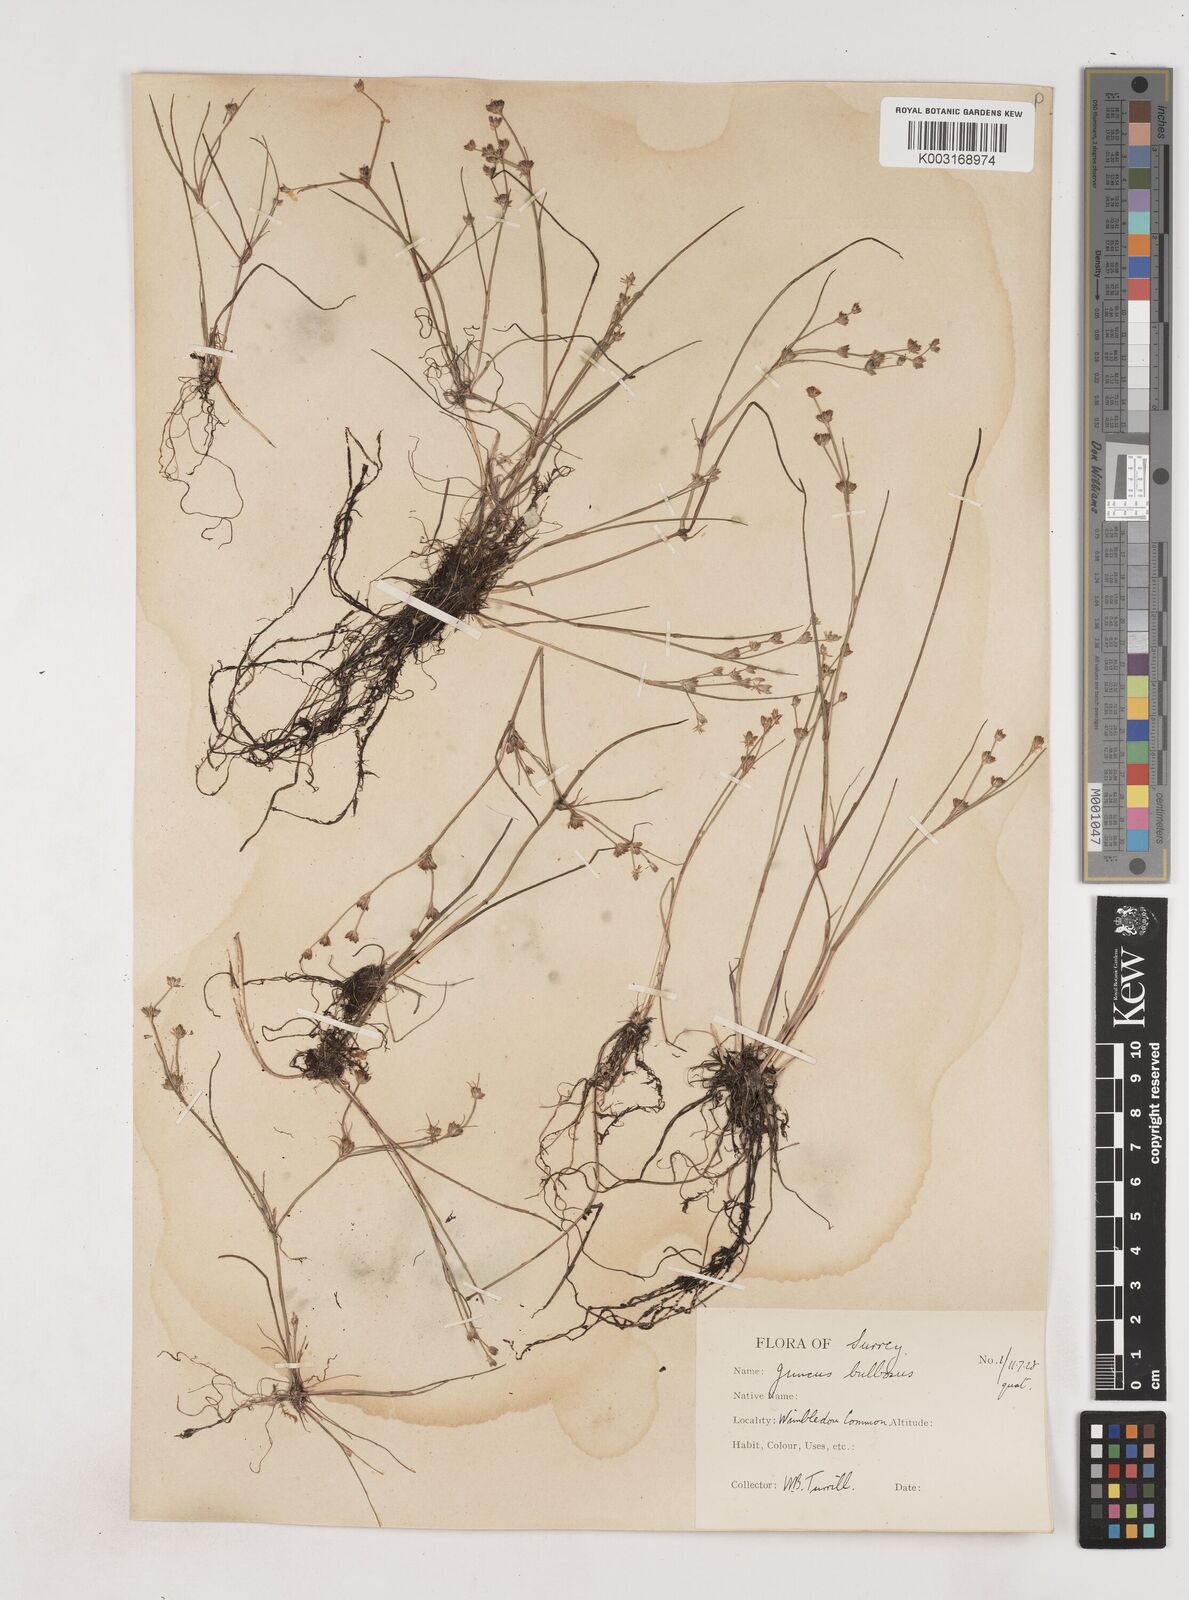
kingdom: Plantae
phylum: Tracheophyta
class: Liliopsida
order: Poales
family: Juncaceae
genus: Juncus
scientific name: Juncus bulbosus
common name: Bulbous rush
